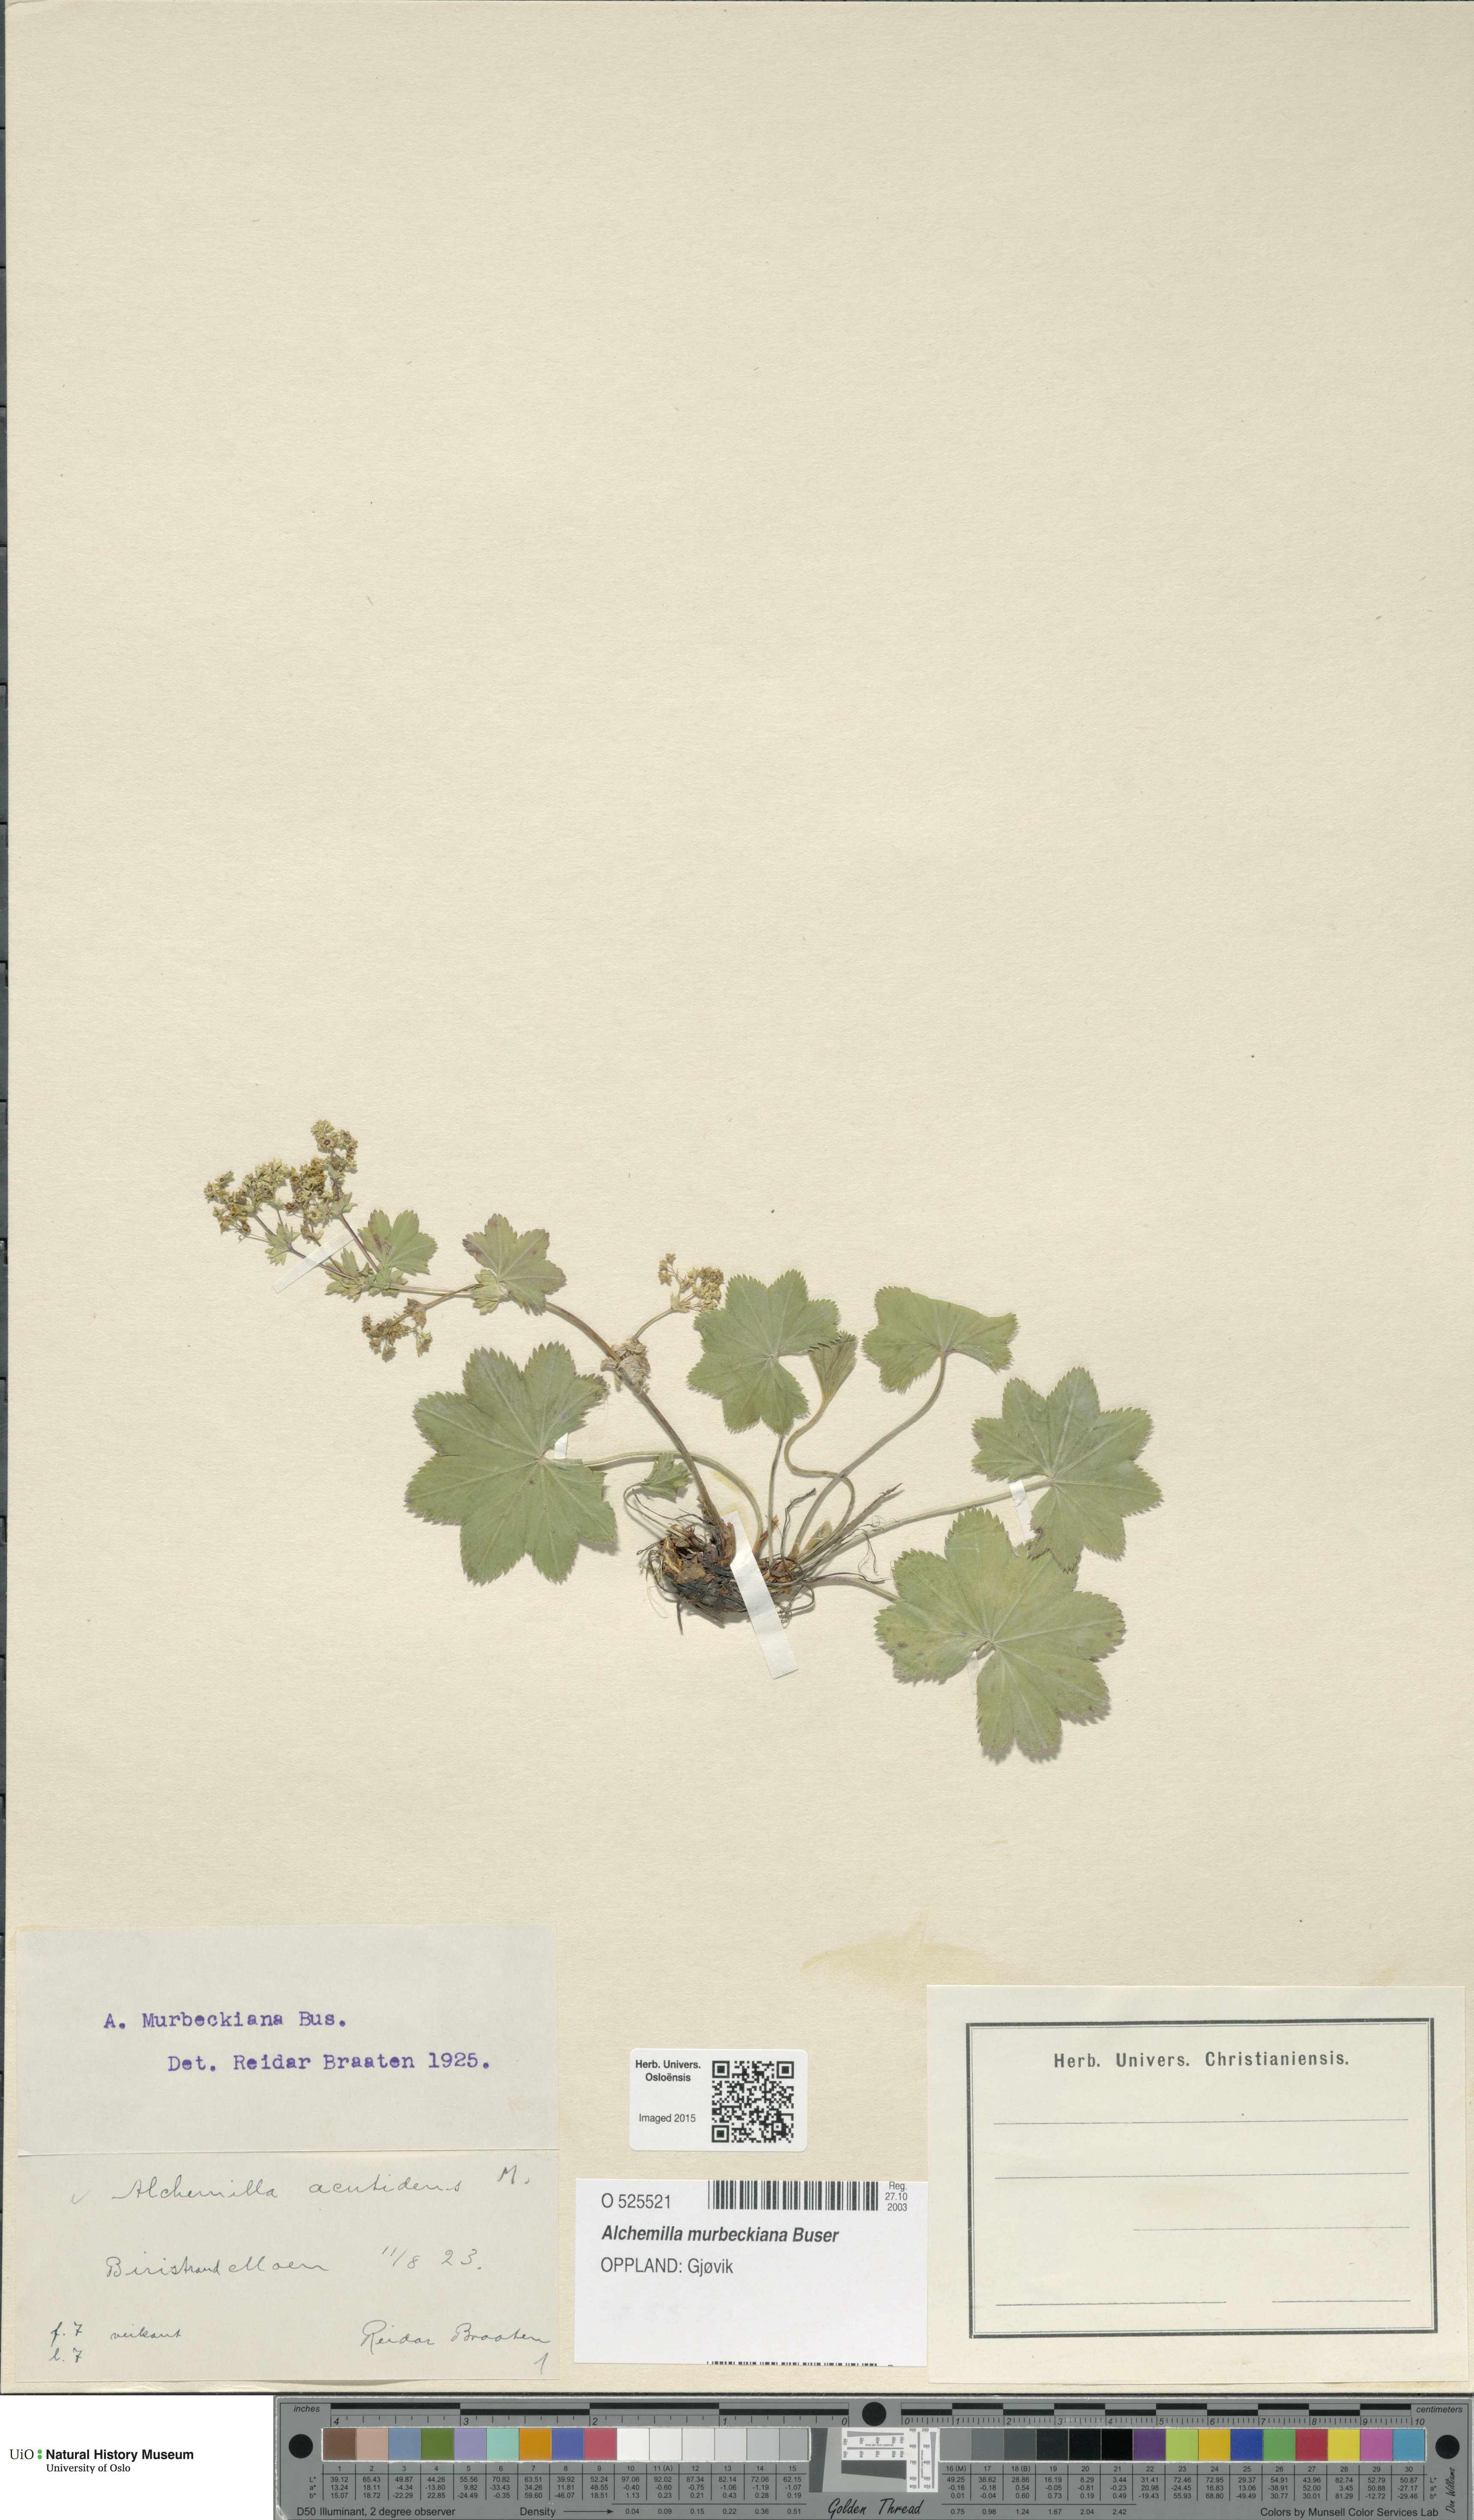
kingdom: Plantae
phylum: Tracheophyta
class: Magnoliopsida
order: Rosales
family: Rosaceae
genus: Alchemilla
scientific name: Alchemilla murbeckiana
